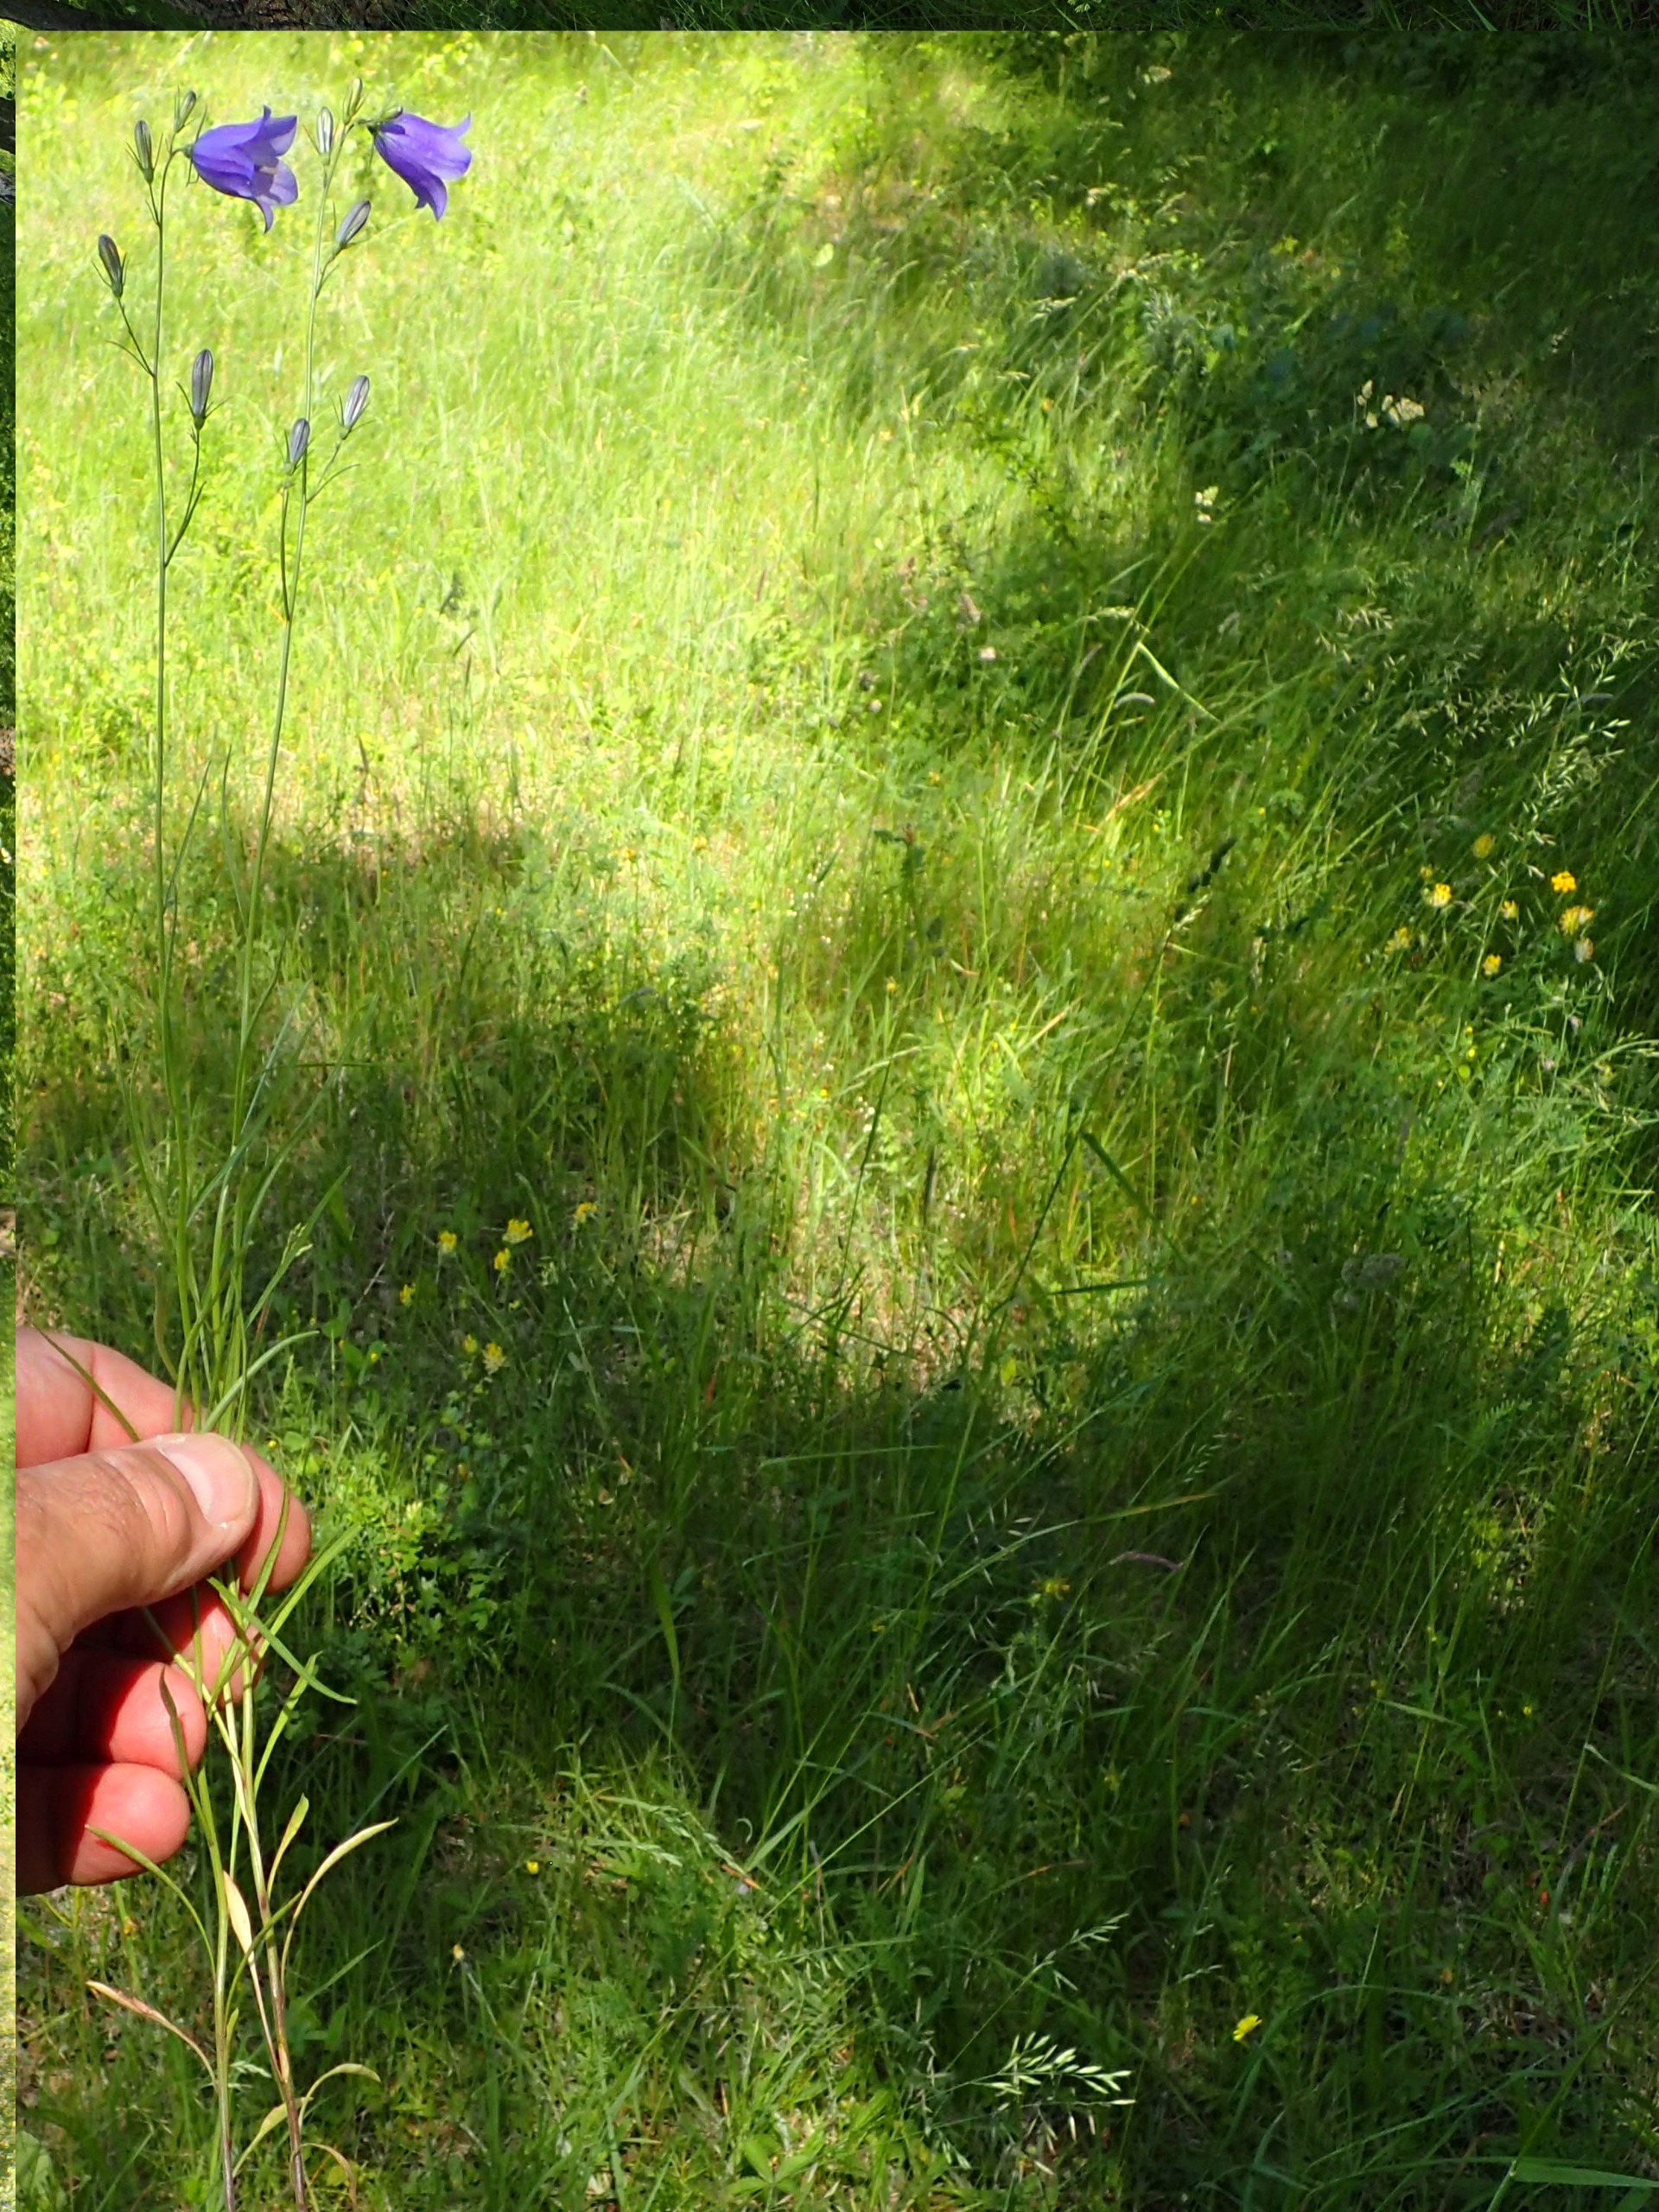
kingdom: Plantae
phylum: Tracheophyta
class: Magnoliopsida
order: Asterales
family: Campanulaceae
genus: Campanula
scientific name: Campanula persicifolia
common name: Smalbladet klokke
